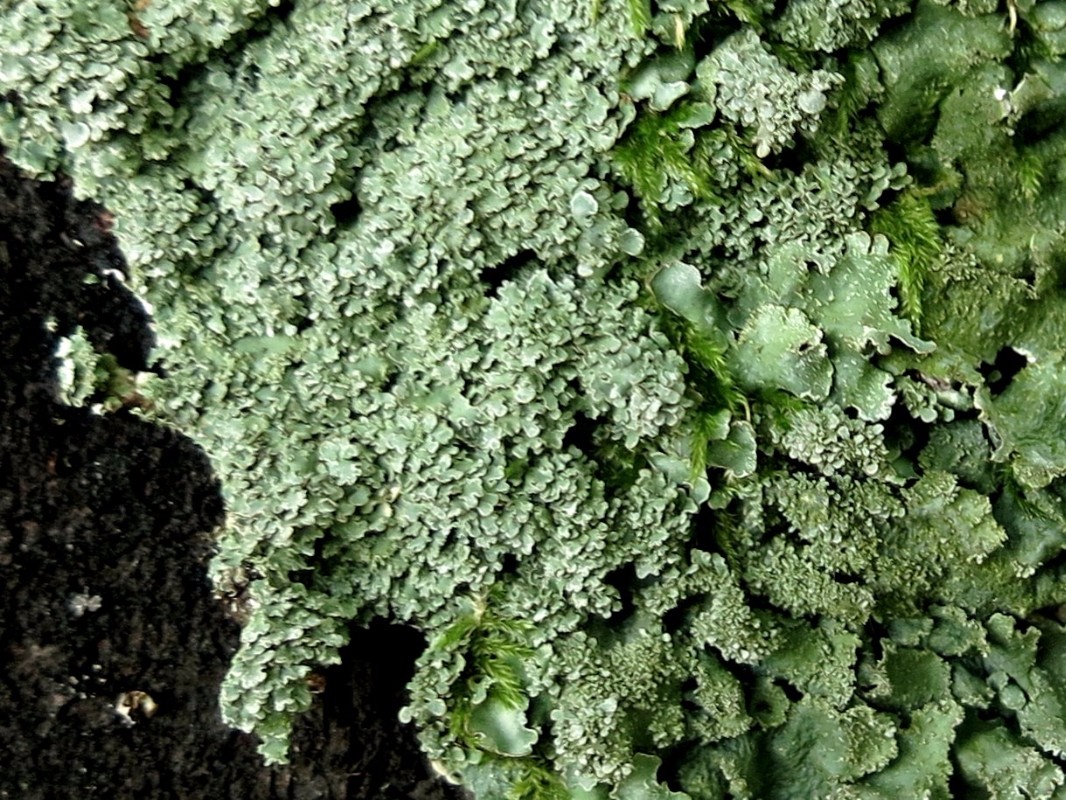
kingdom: Fungi
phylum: Ascomycota
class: Lecanoromycetes
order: Lecanorales
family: Parmeliaceae
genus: Parmelia
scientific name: Parmelia ernstiae
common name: rimstift-skållav
